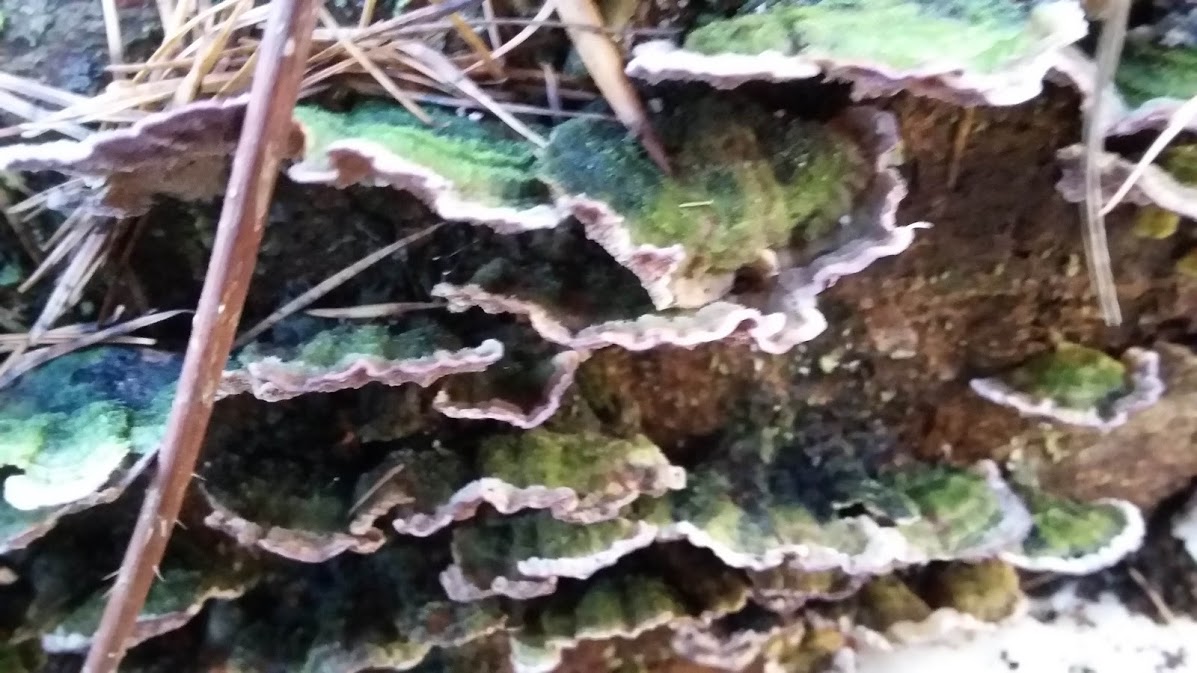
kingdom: Fungi
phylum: Basidiomycota
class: Agaricomycetes
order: Hymenochaetales
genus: Trichaptum
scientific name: Trichaptum abietinum
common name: almindelig violporesvamp
